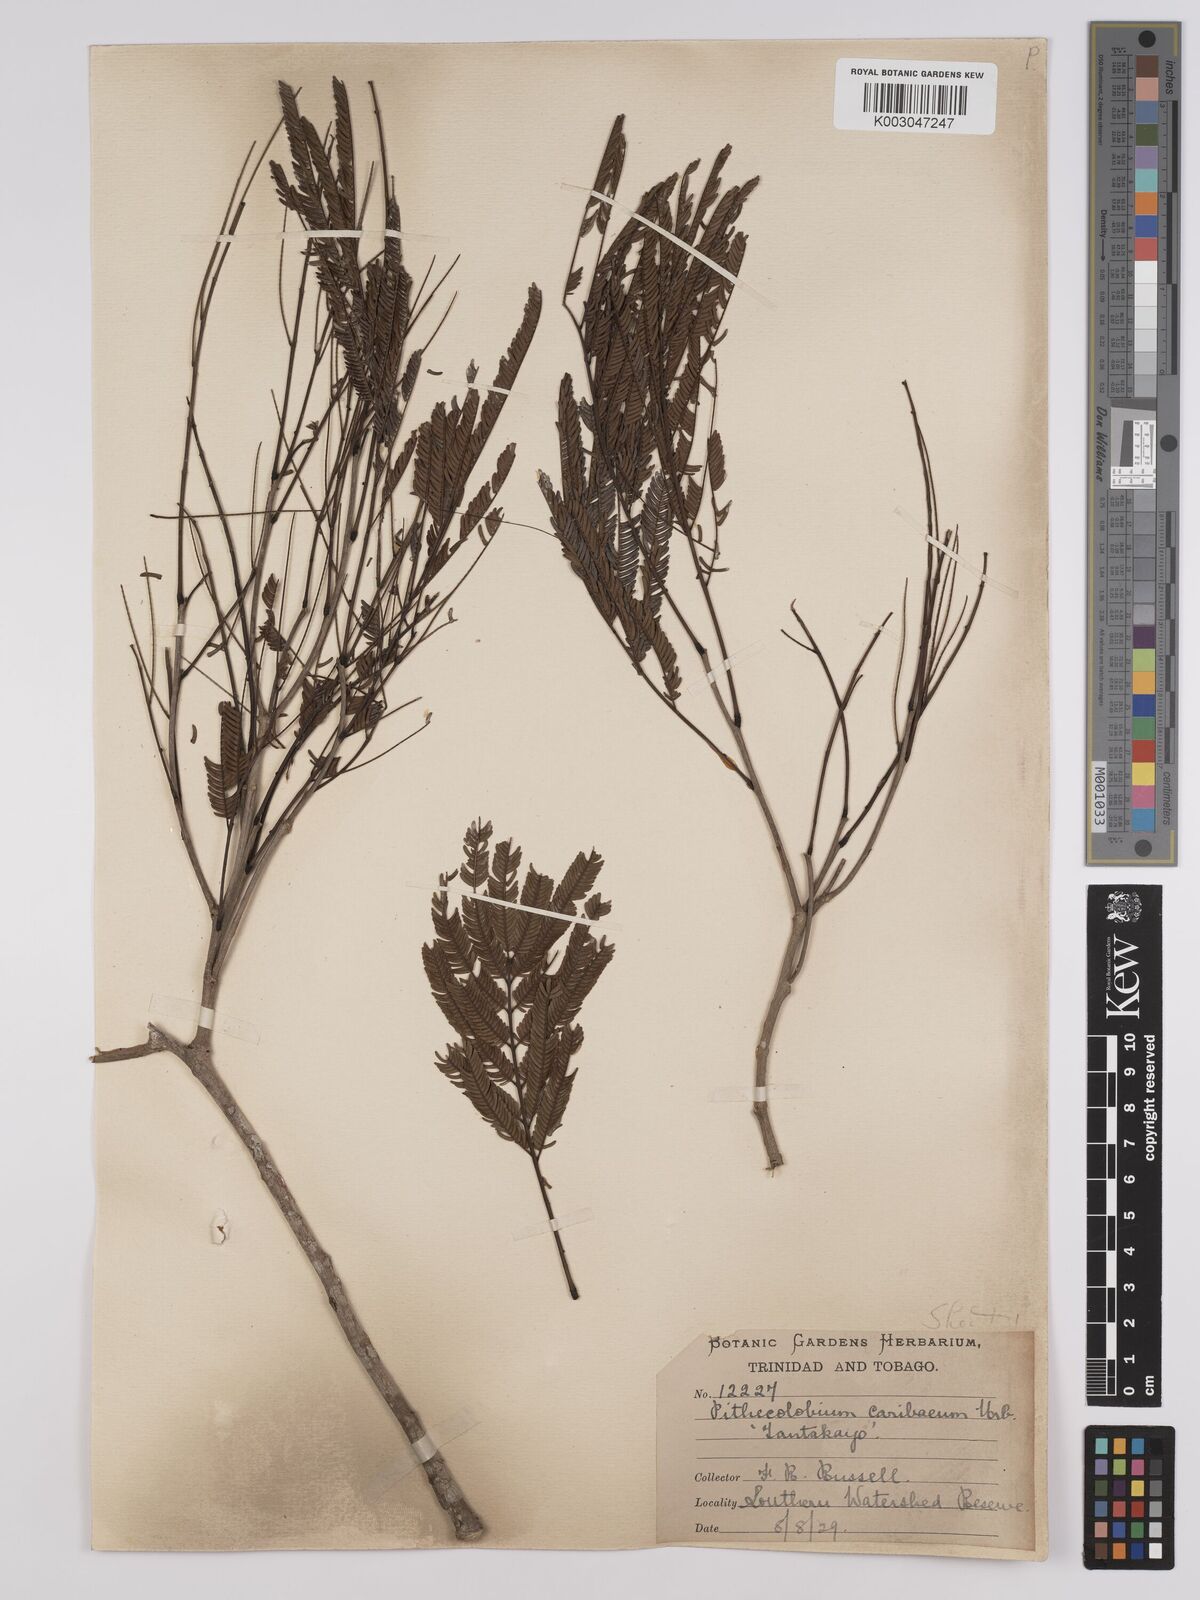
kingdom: Plantae
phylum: Tracheophyta
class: Magnoliopsida
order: Fabales
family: Fabaceae
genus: Albizia
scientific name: Albizia niopoides
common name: Silk tree
